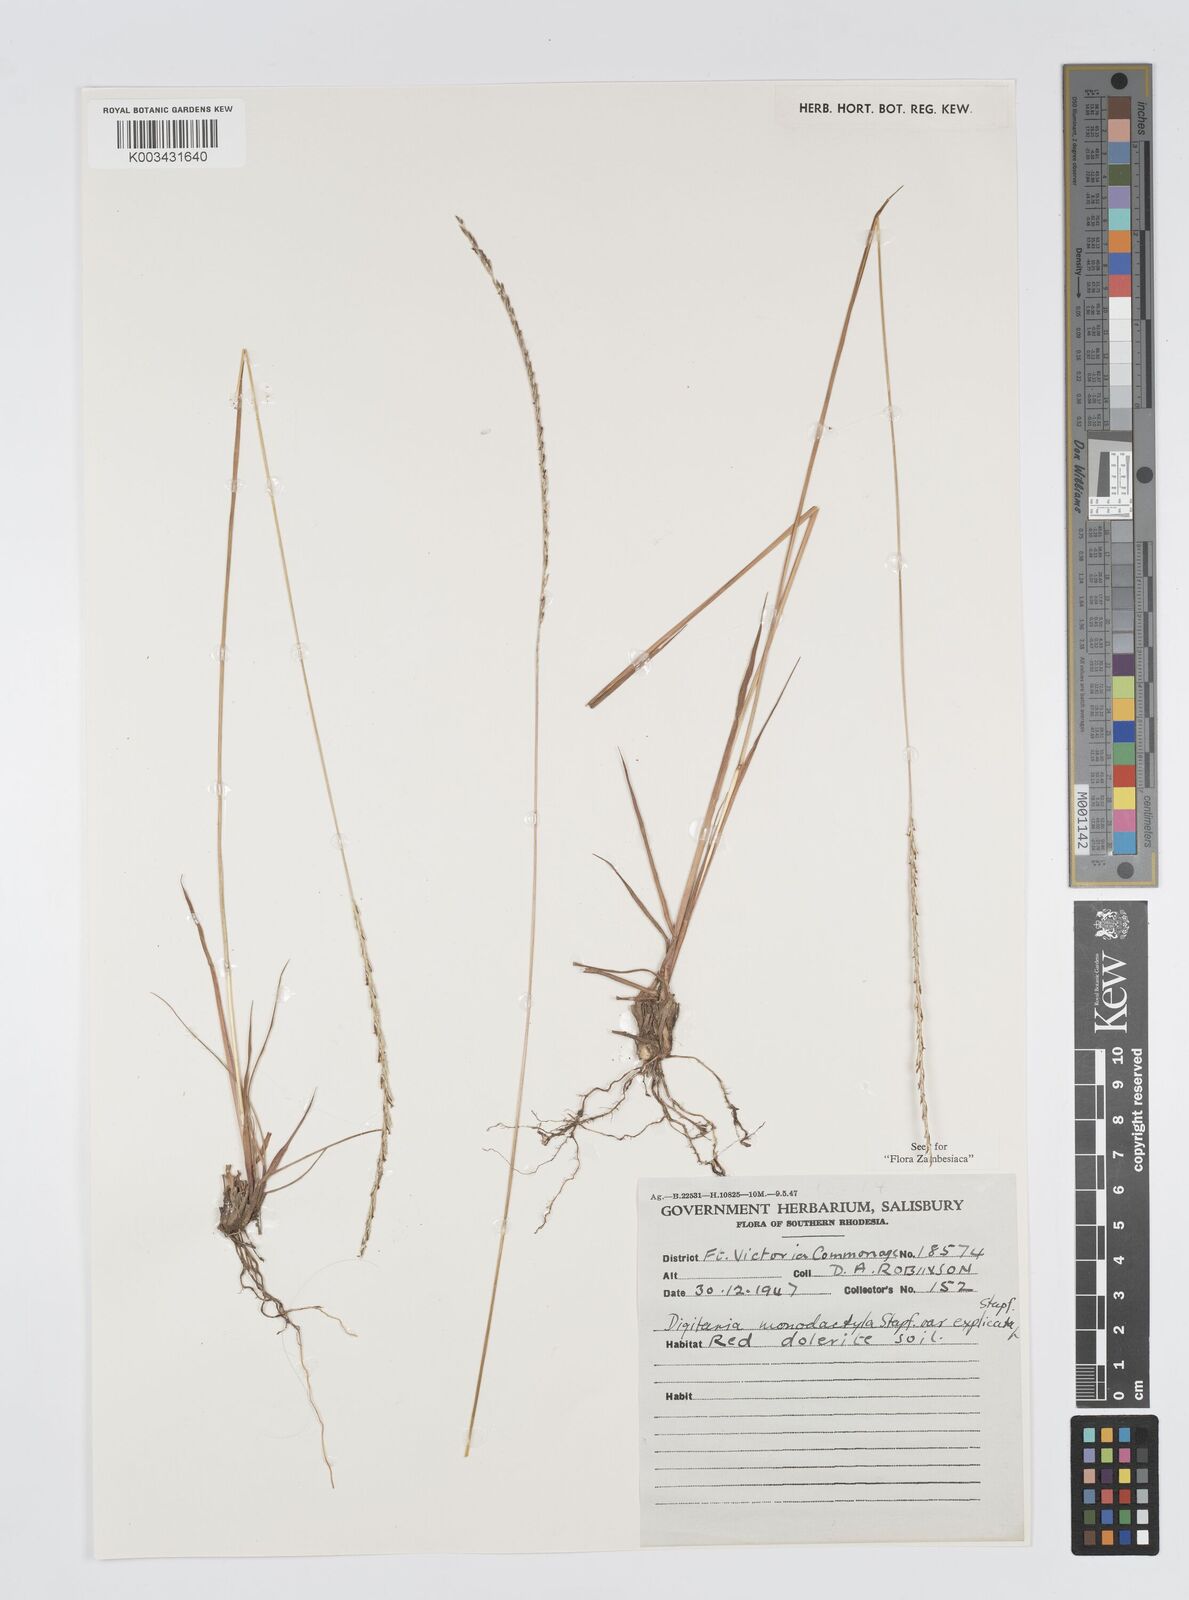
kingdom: Plantae
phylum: Tracheophyta
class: Liliopsida
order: Poales
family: Poaceae
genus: Digitaria
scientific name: Digitaria monodactyla
